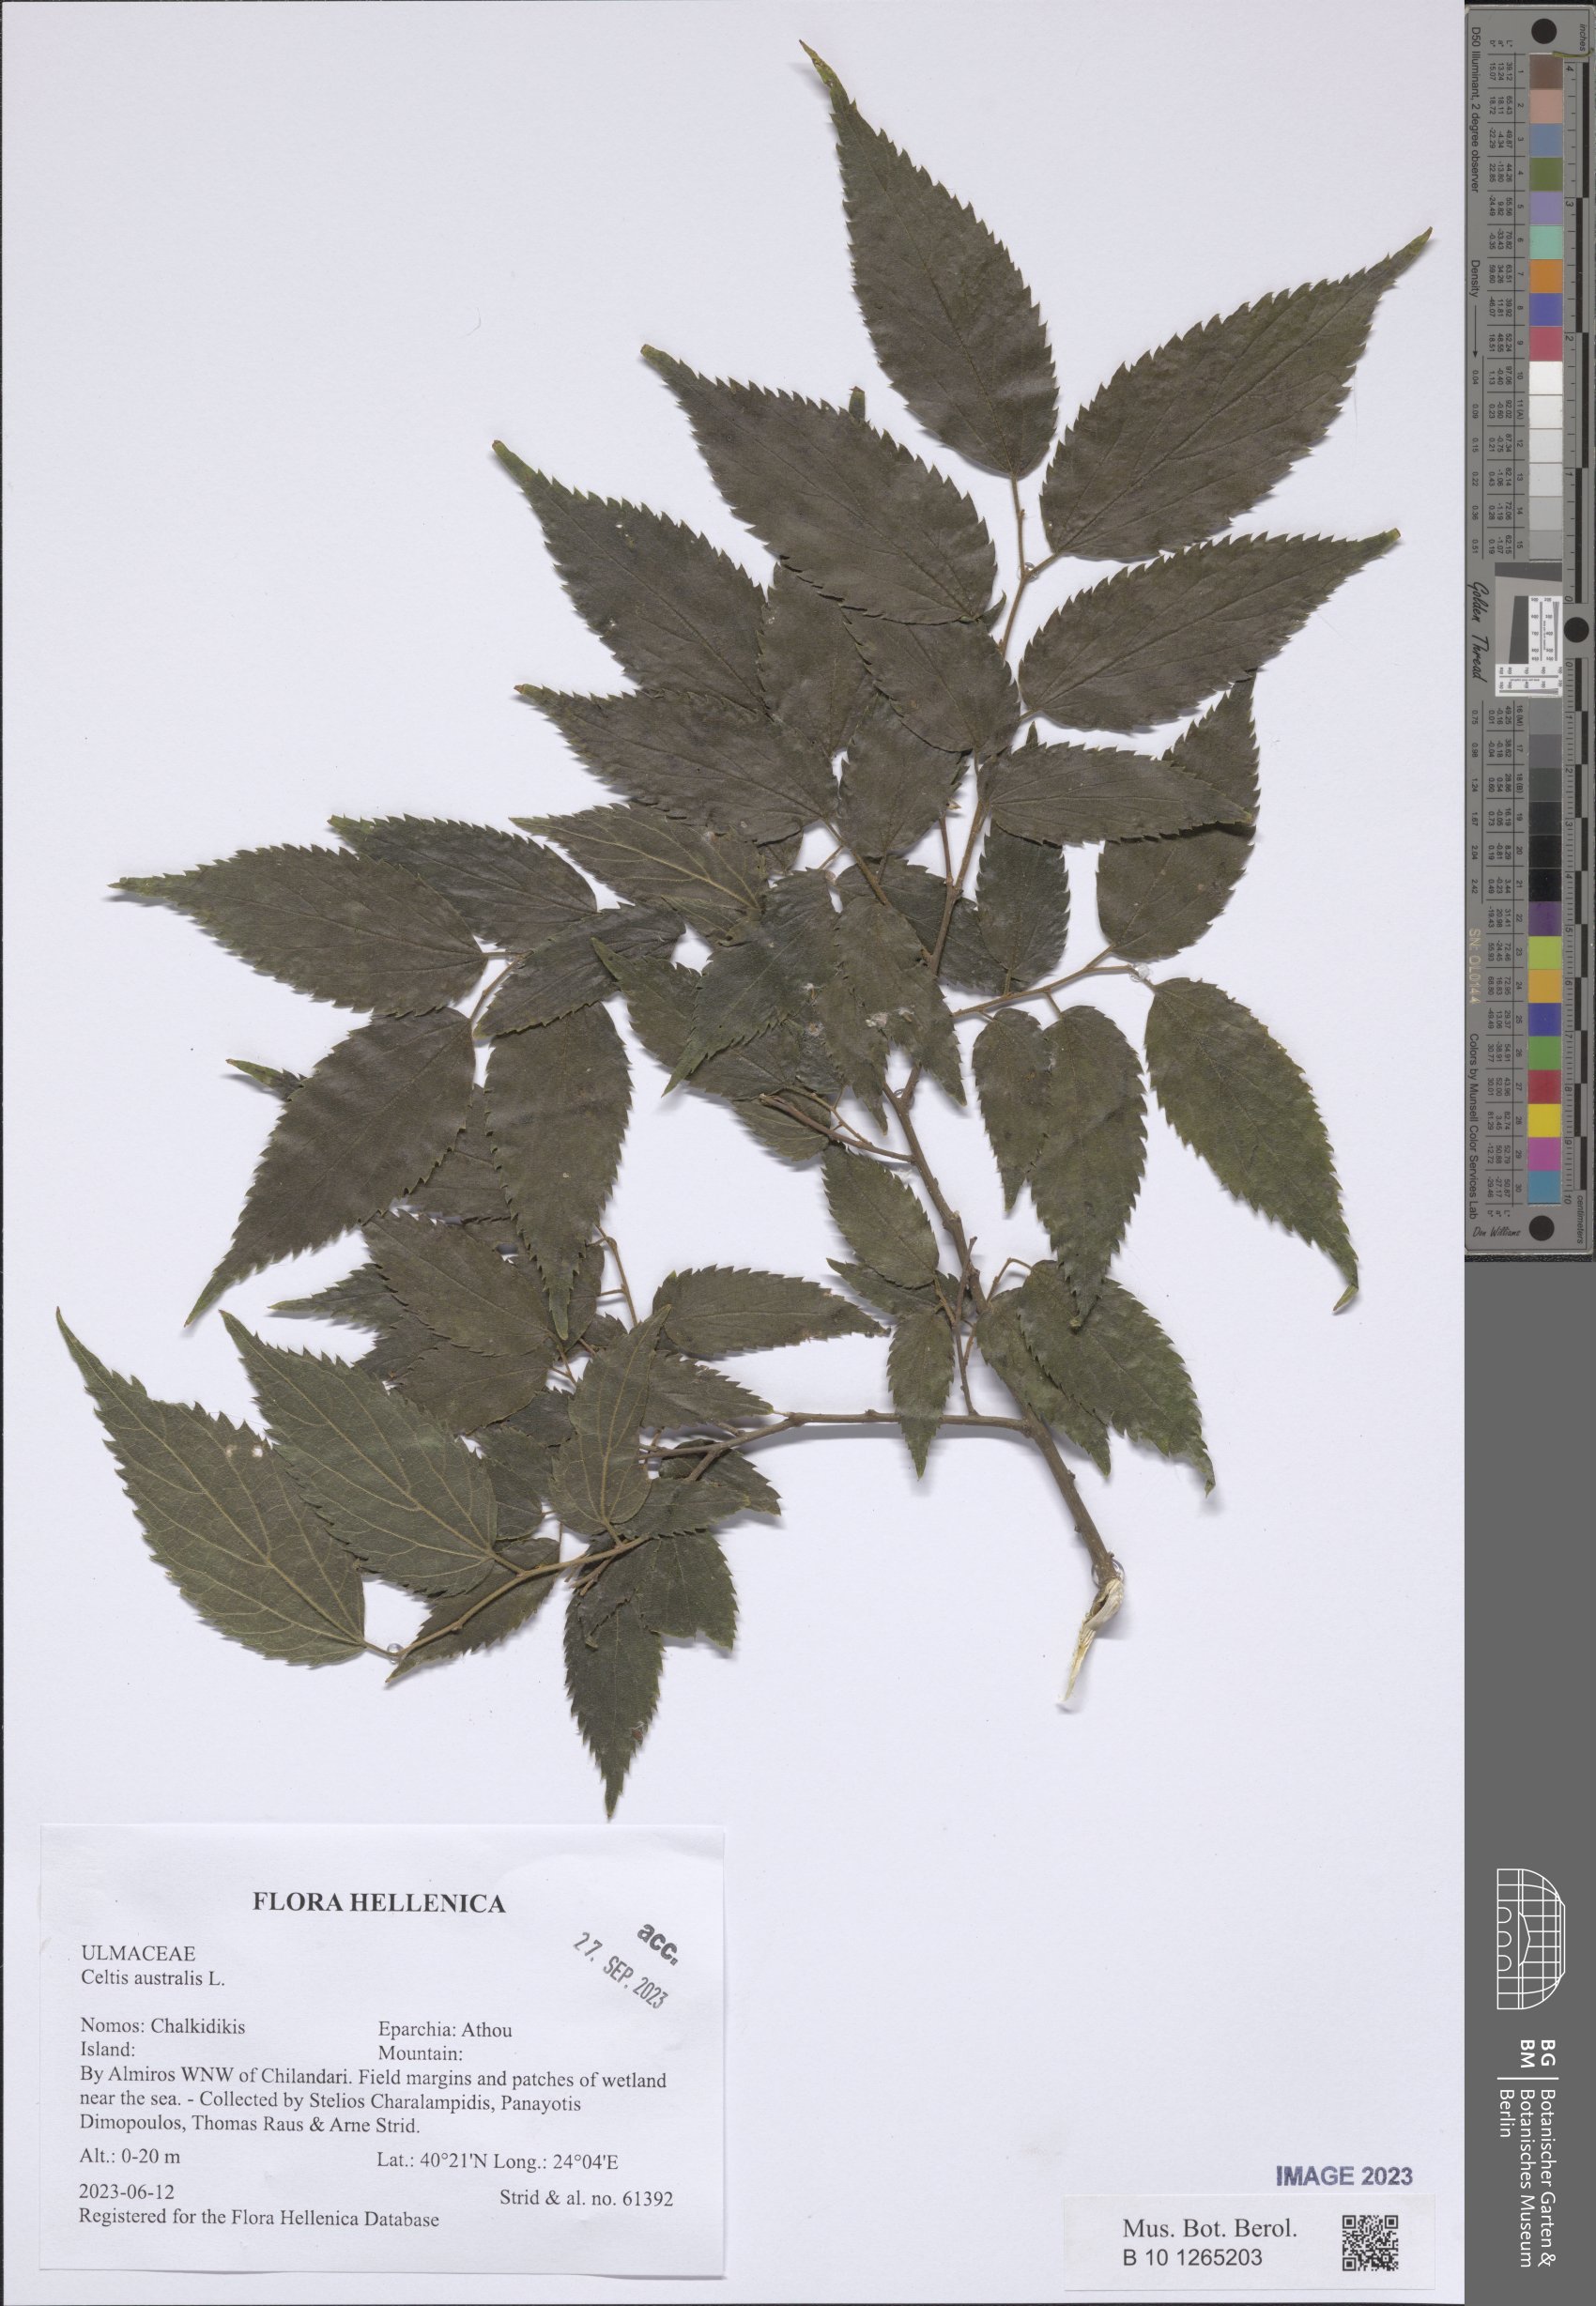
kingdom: Plantae
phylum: Tracheophyta
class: Magnoliopsida
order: Rosales
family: Cannabaceae
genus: Celtis
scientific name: Celtis australis
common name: European hackberry
